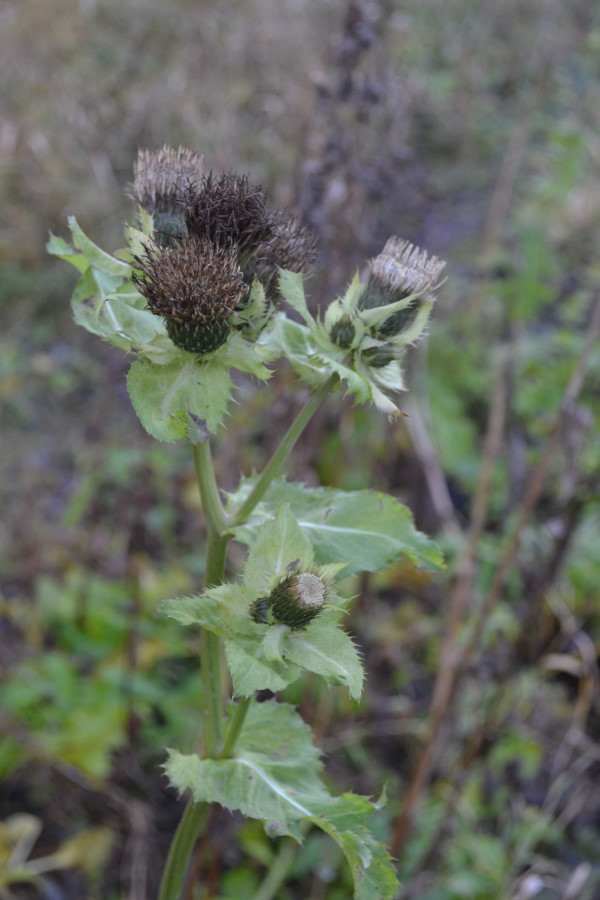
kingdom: Plantae
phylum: Tracheophyta
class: Magnoliopsida
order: Asterales
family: Asteraceae
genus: Cirsium
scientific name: Cirsium oleraceum
